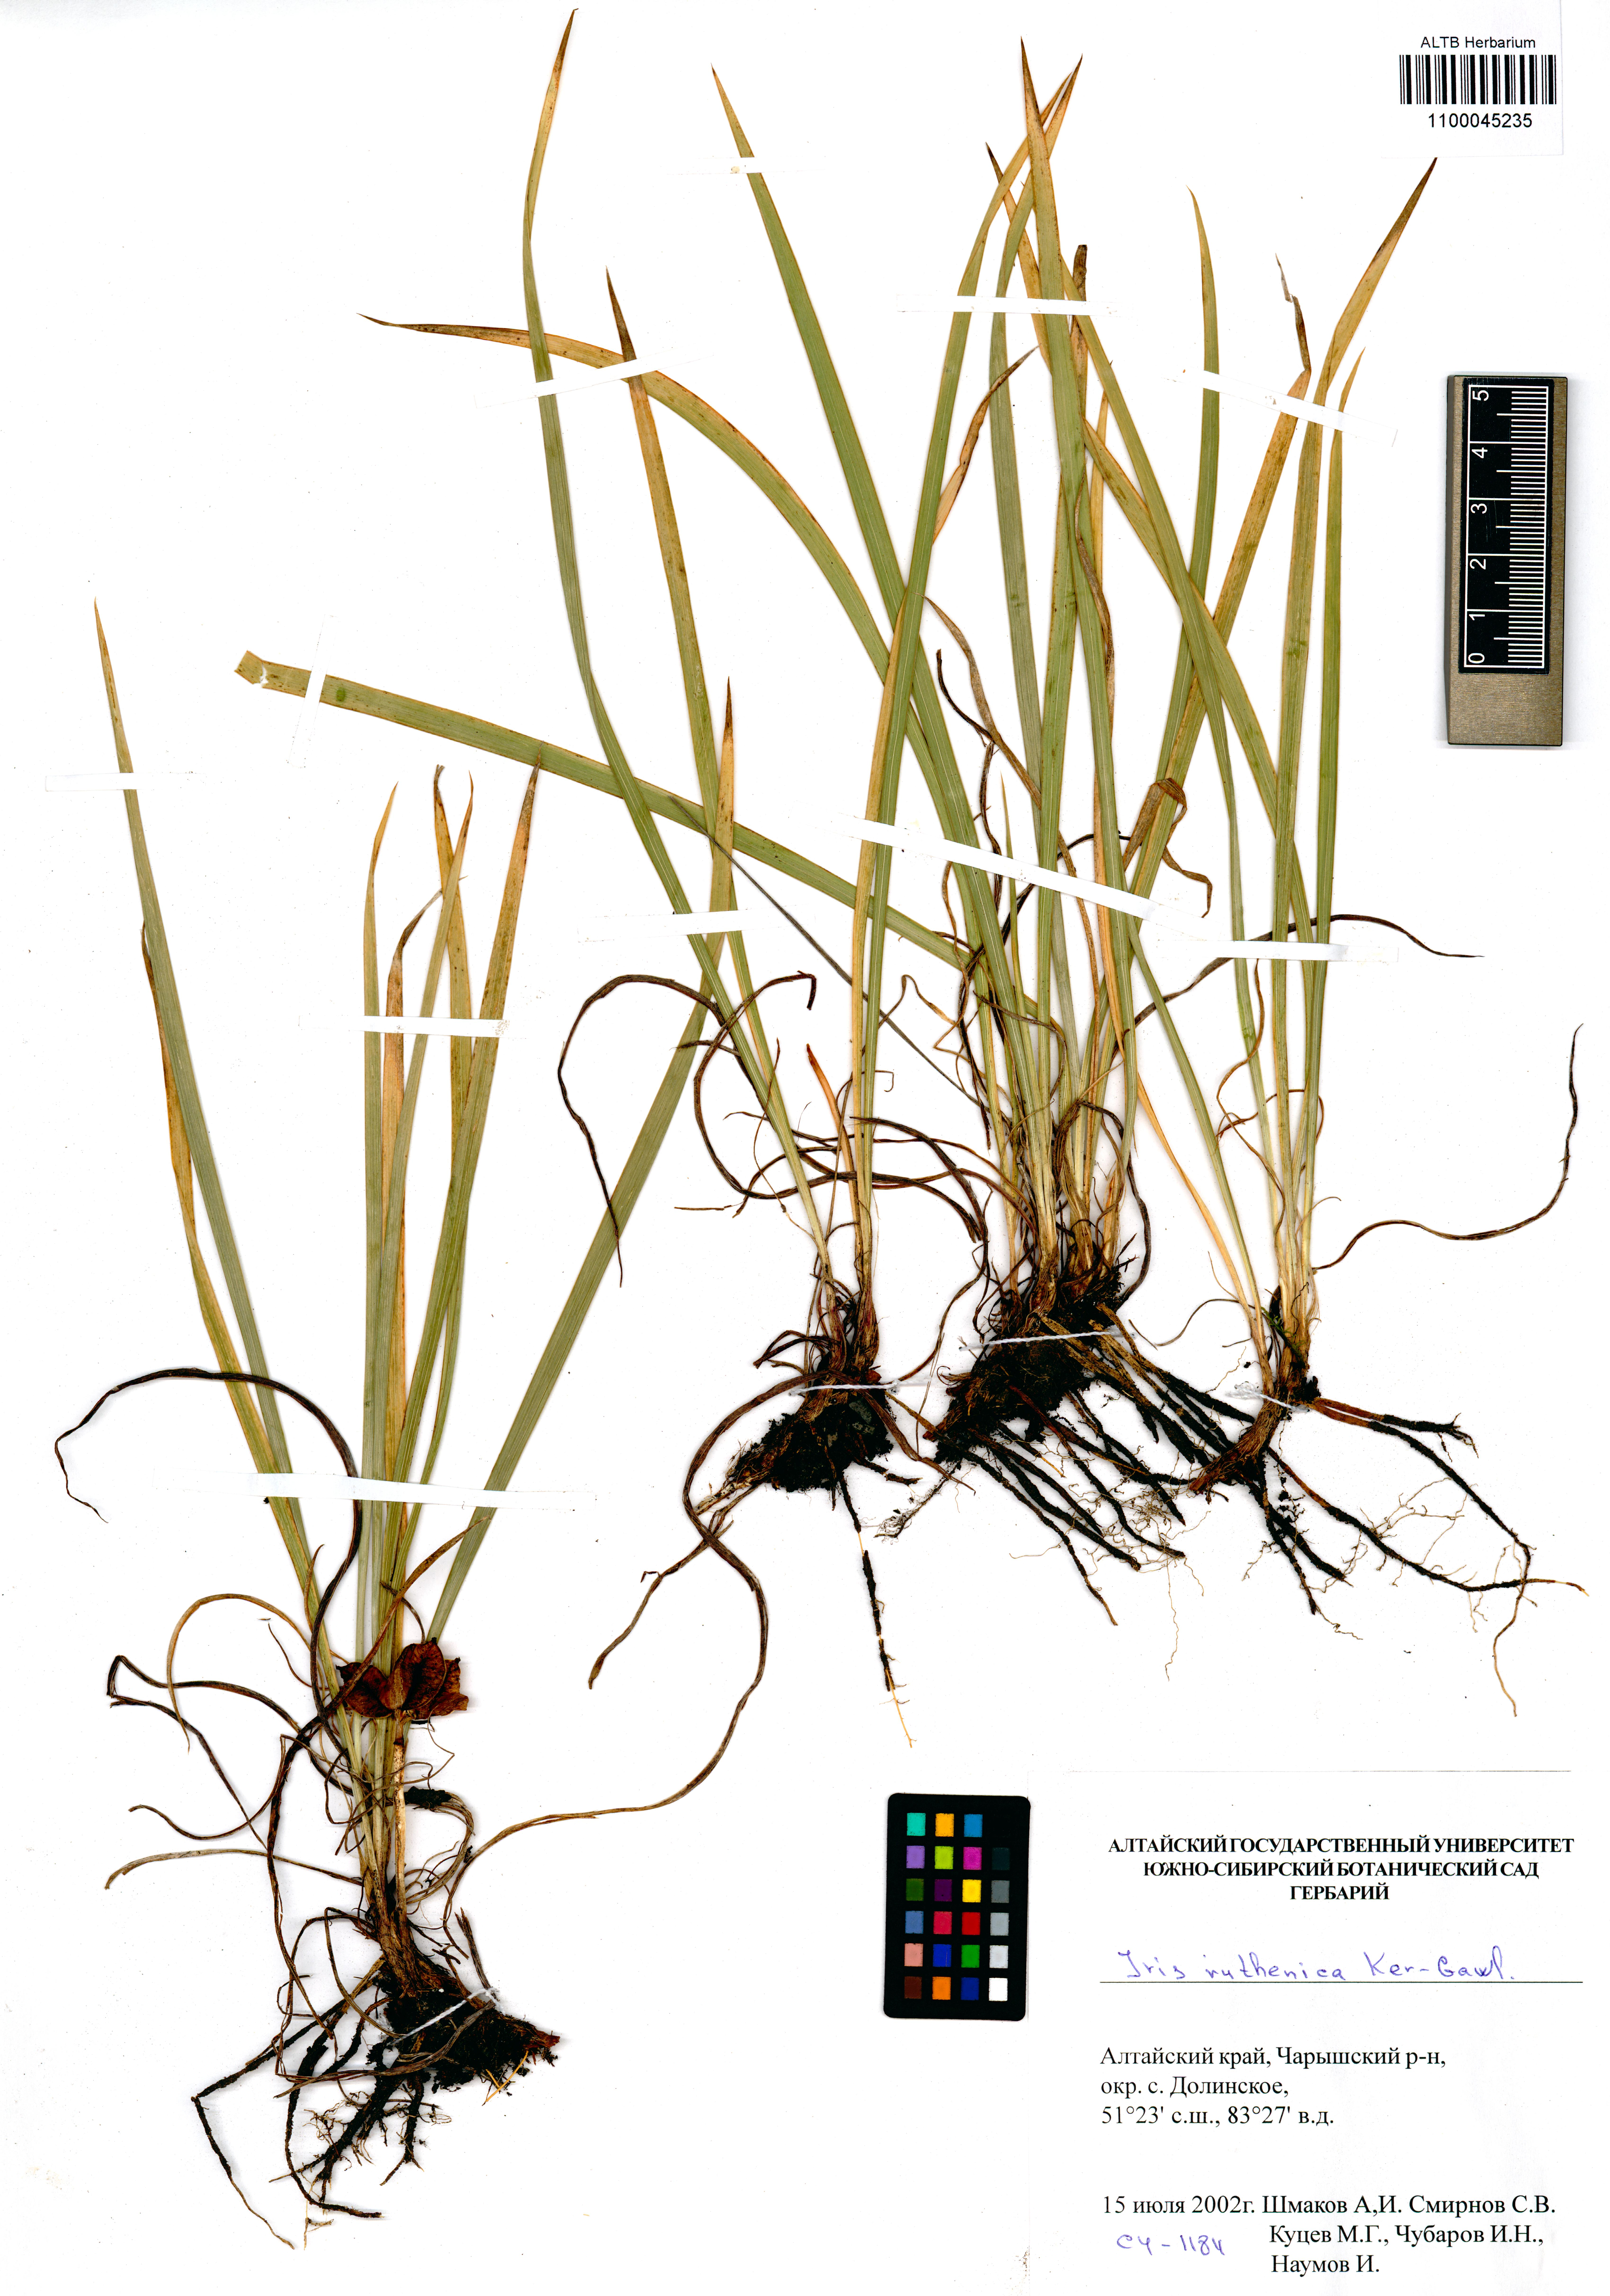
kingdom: Plantae
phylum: Tracheophyta
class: Liliopsida
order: Asparagales
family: Iridaceae
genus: Iris
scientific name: Iris ruthenica
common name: Purple-bract iris
